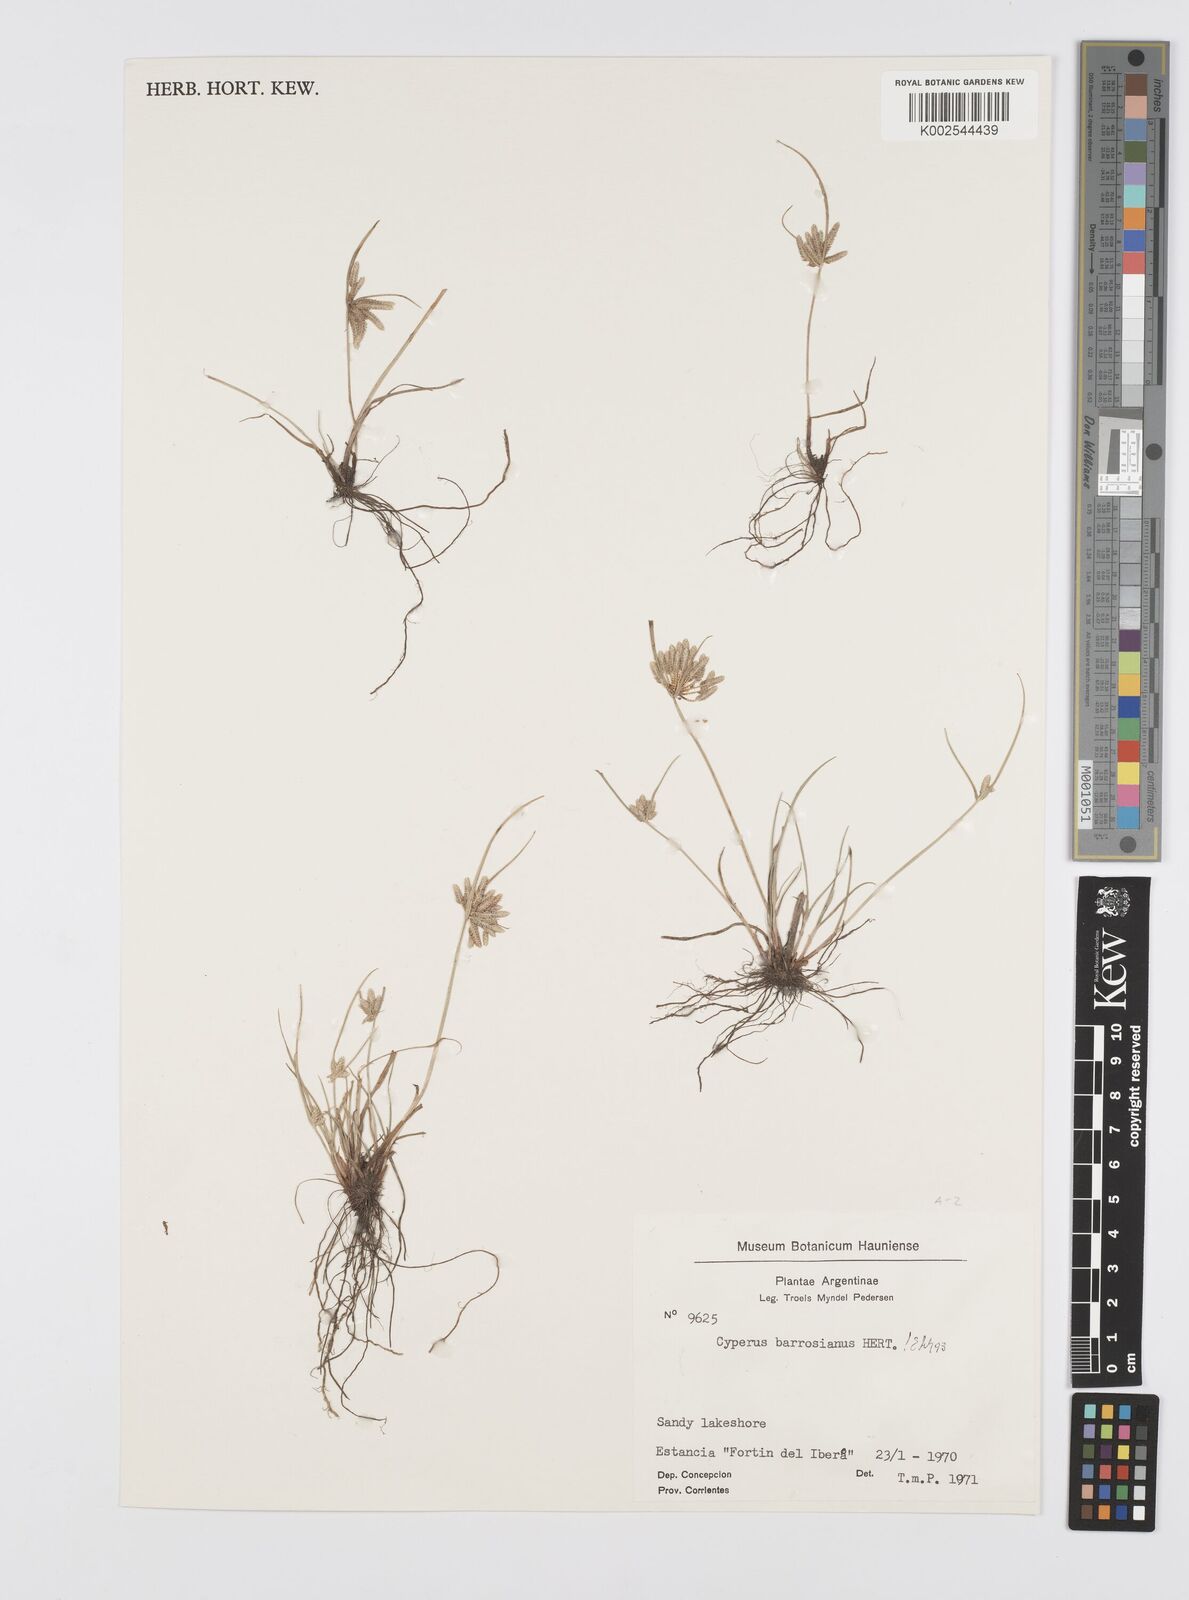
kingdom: Plantae
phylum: Tracheophyta
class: Liliopsida
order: Poales
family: Cyperaceae
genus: Cyperus
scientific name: Cyperus barrosianus
